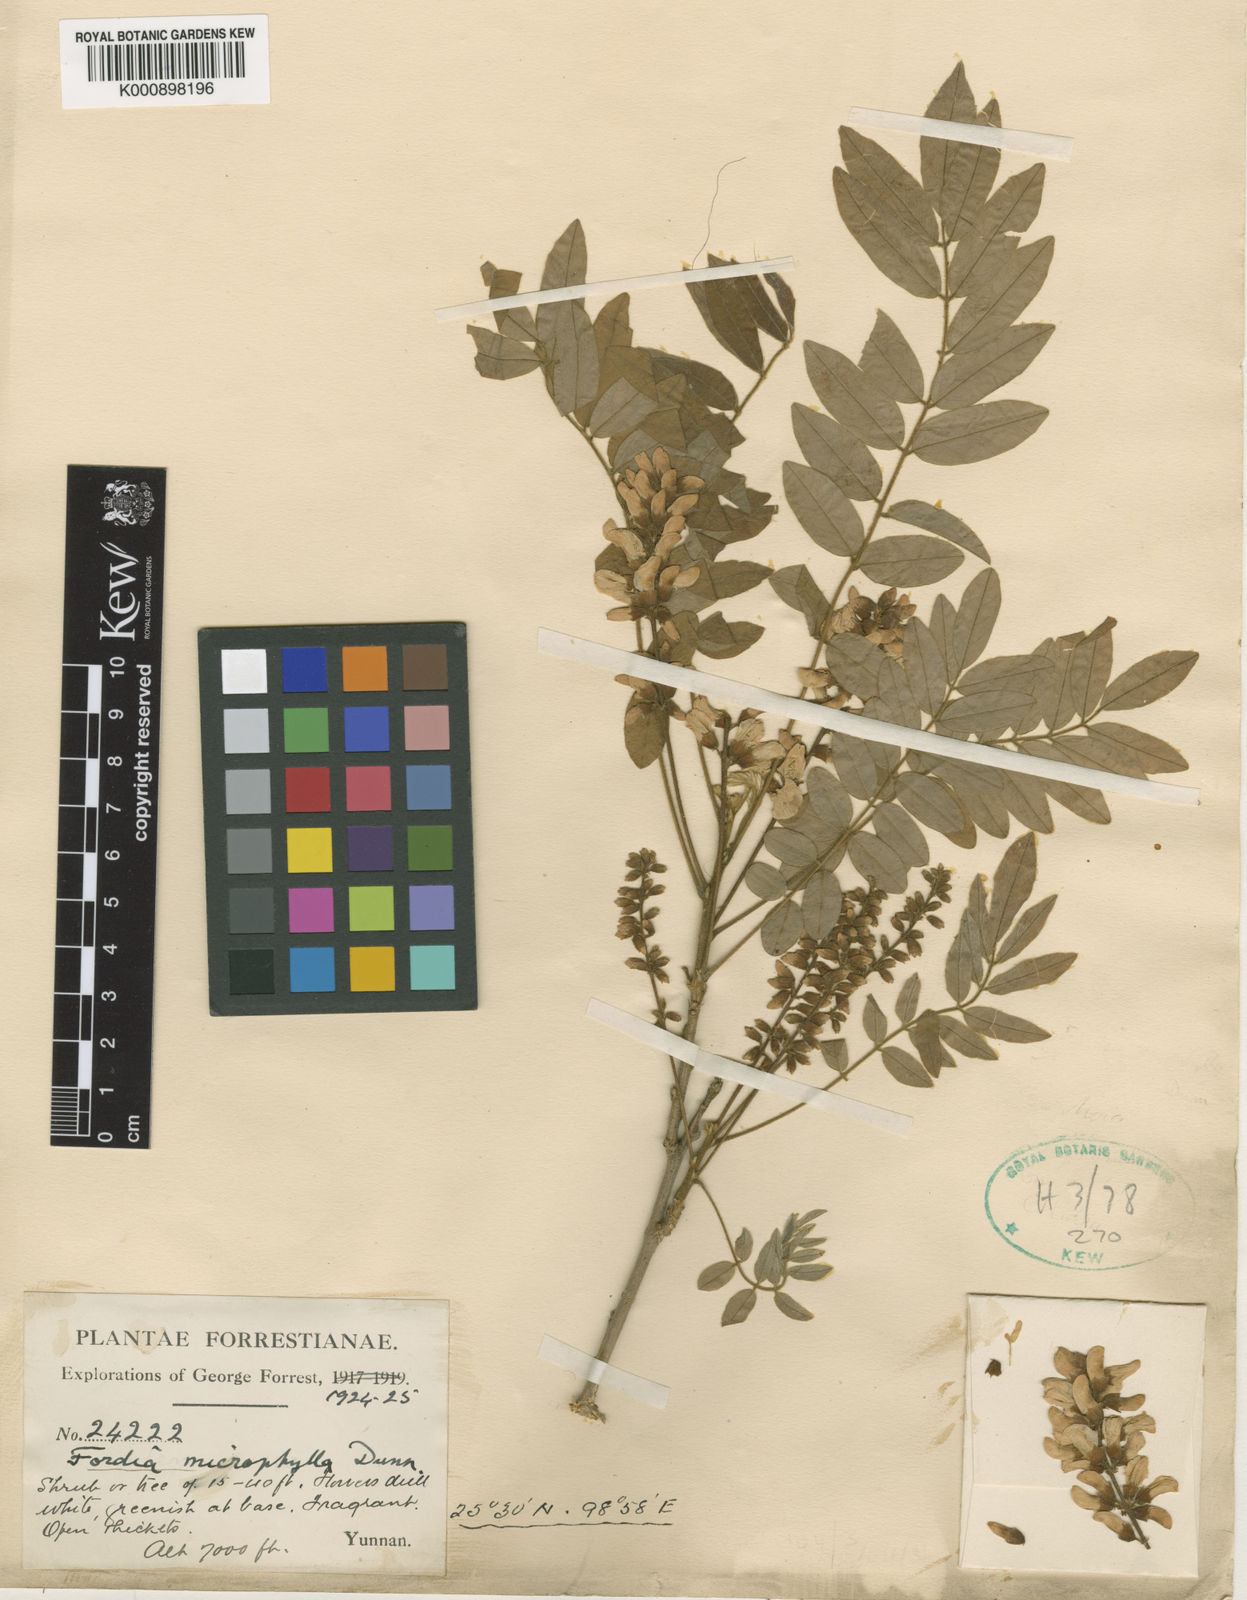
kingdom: Plantae
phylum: Tracheophyta
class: Magnoliopsida
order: Fabales
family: Fabaceae
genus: Millettia
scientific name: Millettia pulchra
